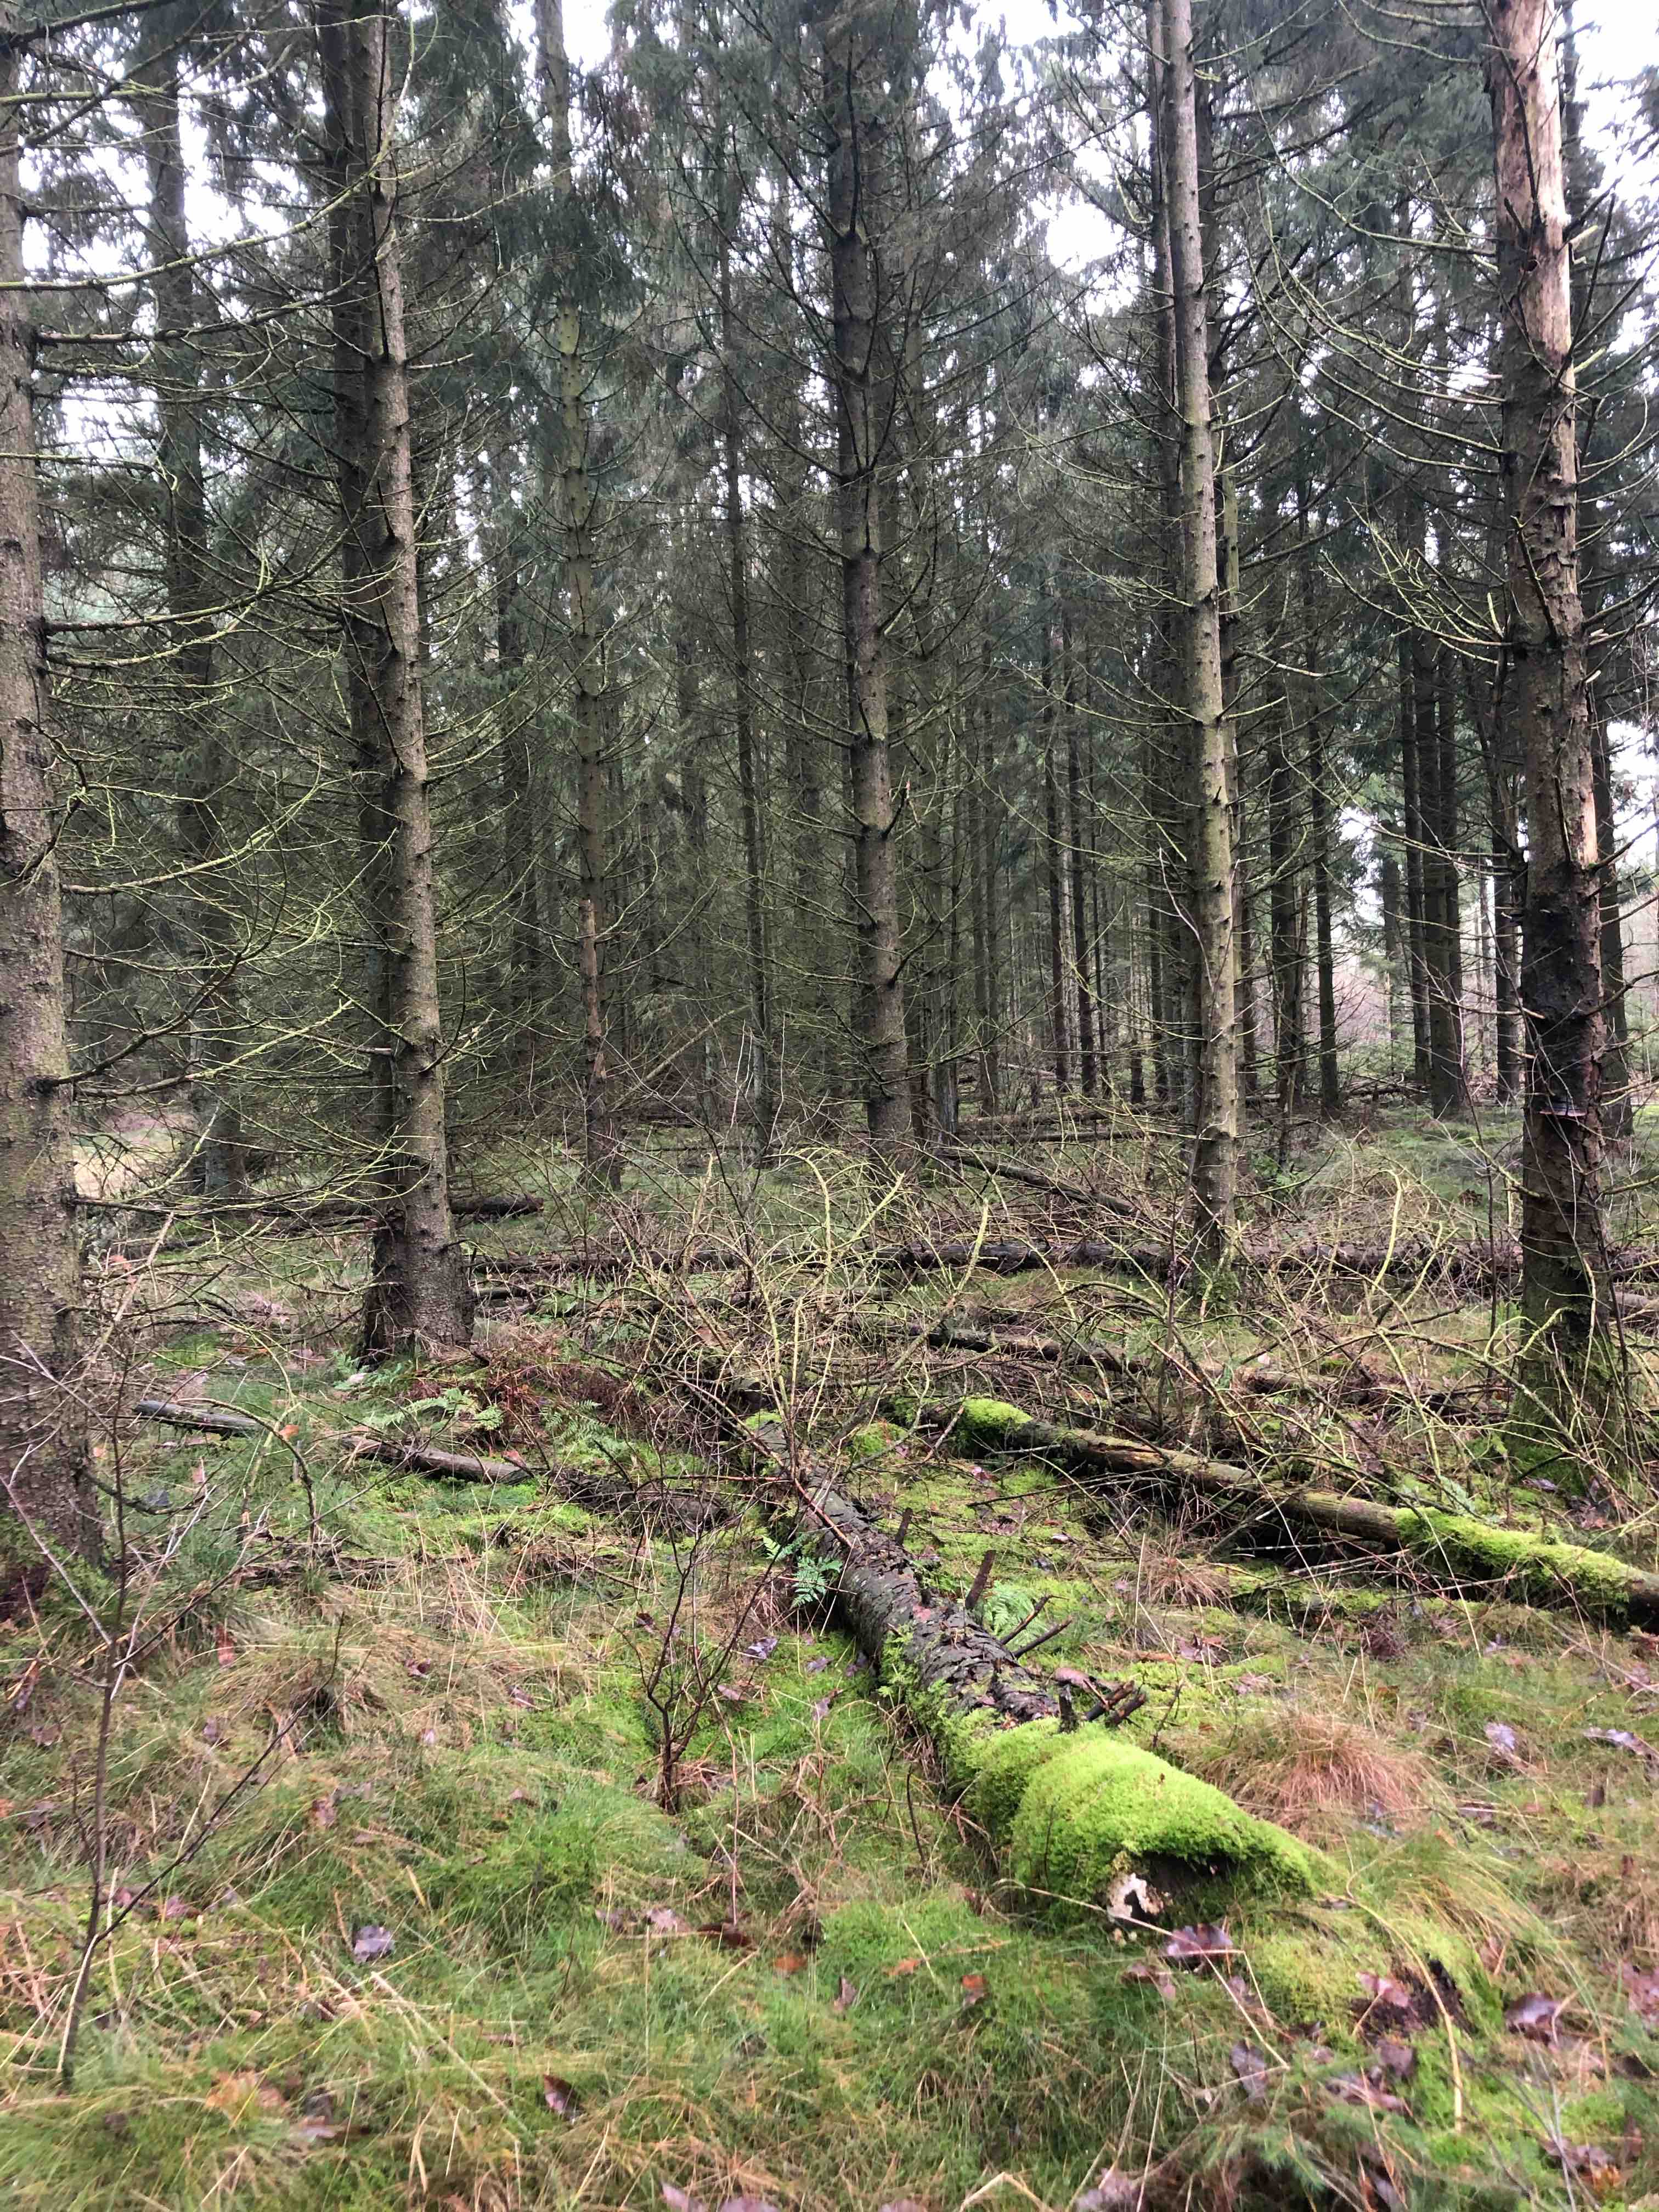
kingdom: Fungi
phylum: Basidiomycota
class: Agaricomycetes
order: Polyporales
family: Fomitopsidaceae
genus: Neoantrodia
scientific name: Neoantrodia serialis
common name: række-sejporesvamp
